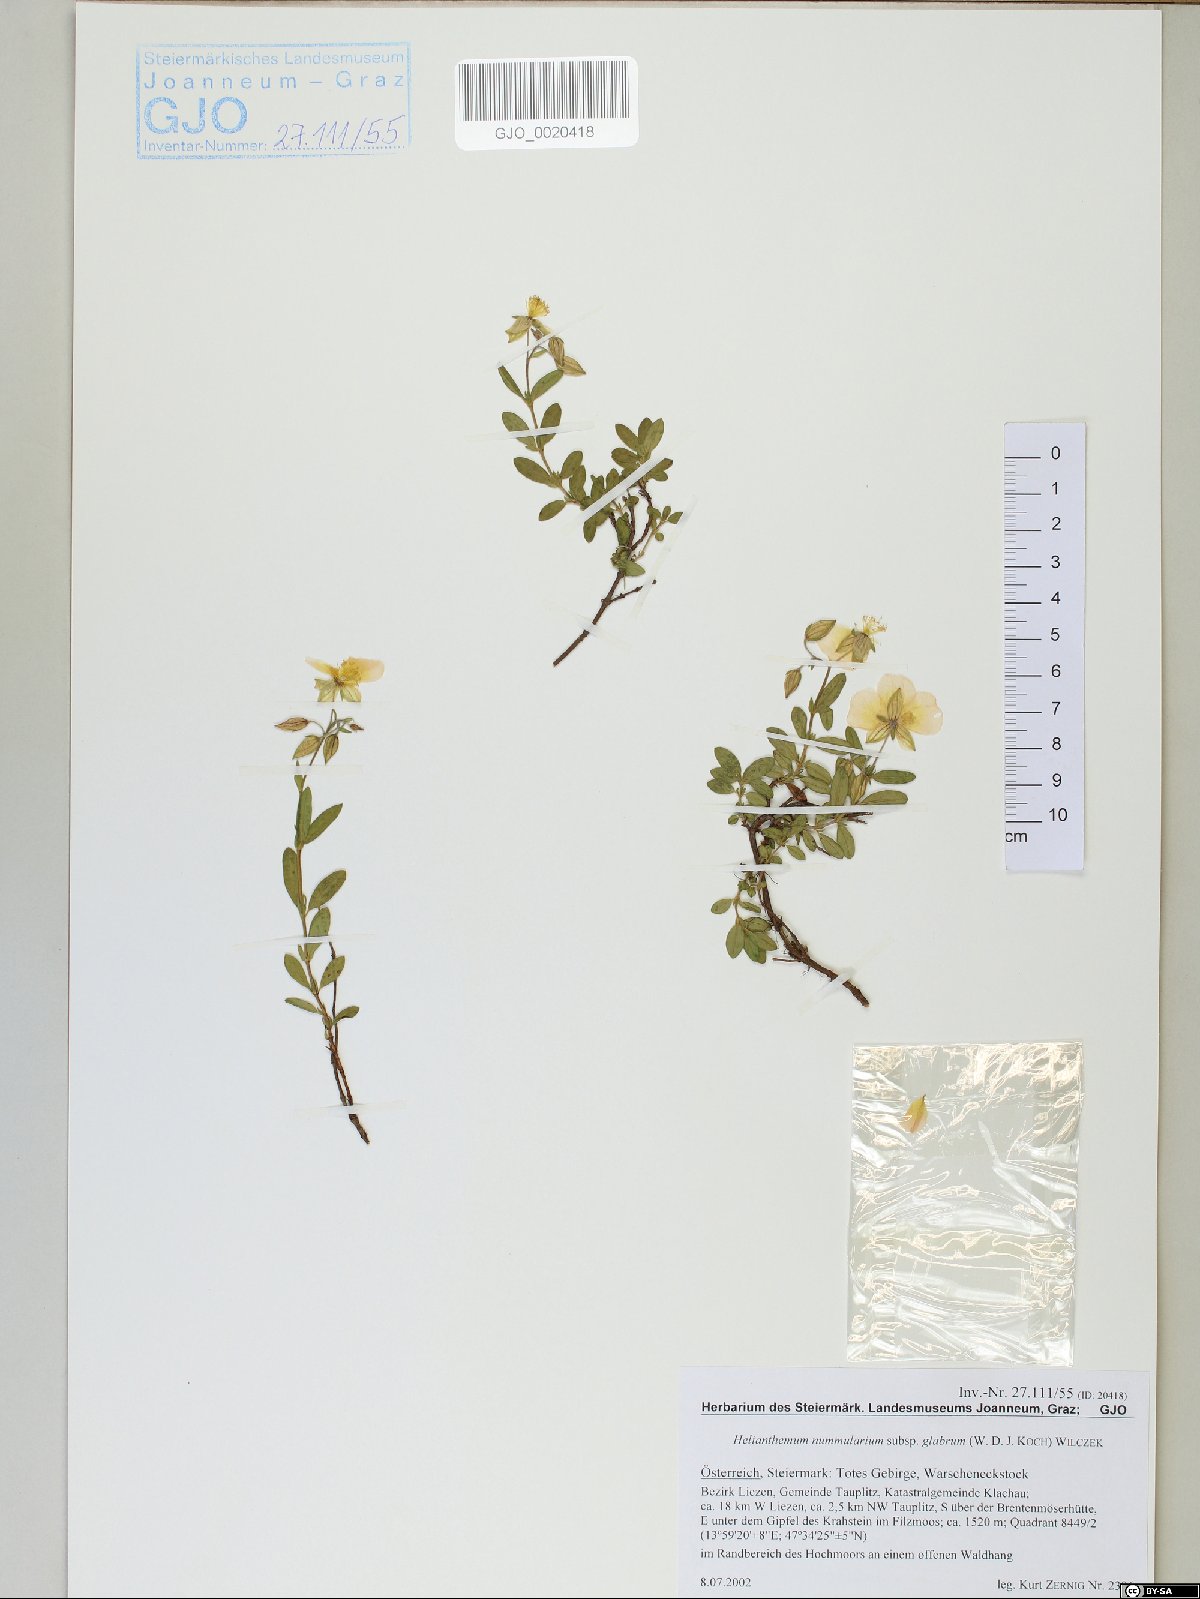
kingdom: Plantae
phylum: Tracheophyta
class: Magnoliopsida
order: Malvales
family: Cistaceae
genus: Helianthemum
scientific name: Helianthemum nummularium
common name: Common rock-rose
